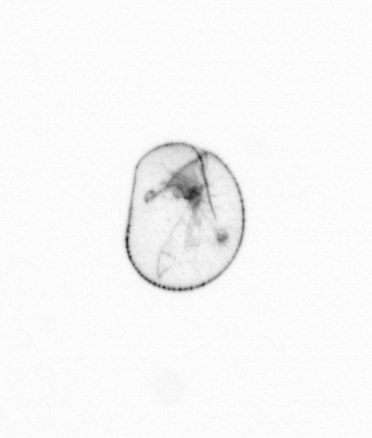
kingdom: Chromista
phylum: Myzozoa
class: Dinophyceae
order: Noctilucales
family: Noctilucaceae
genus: Noctiluca
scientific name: Noctiluca scintillans
